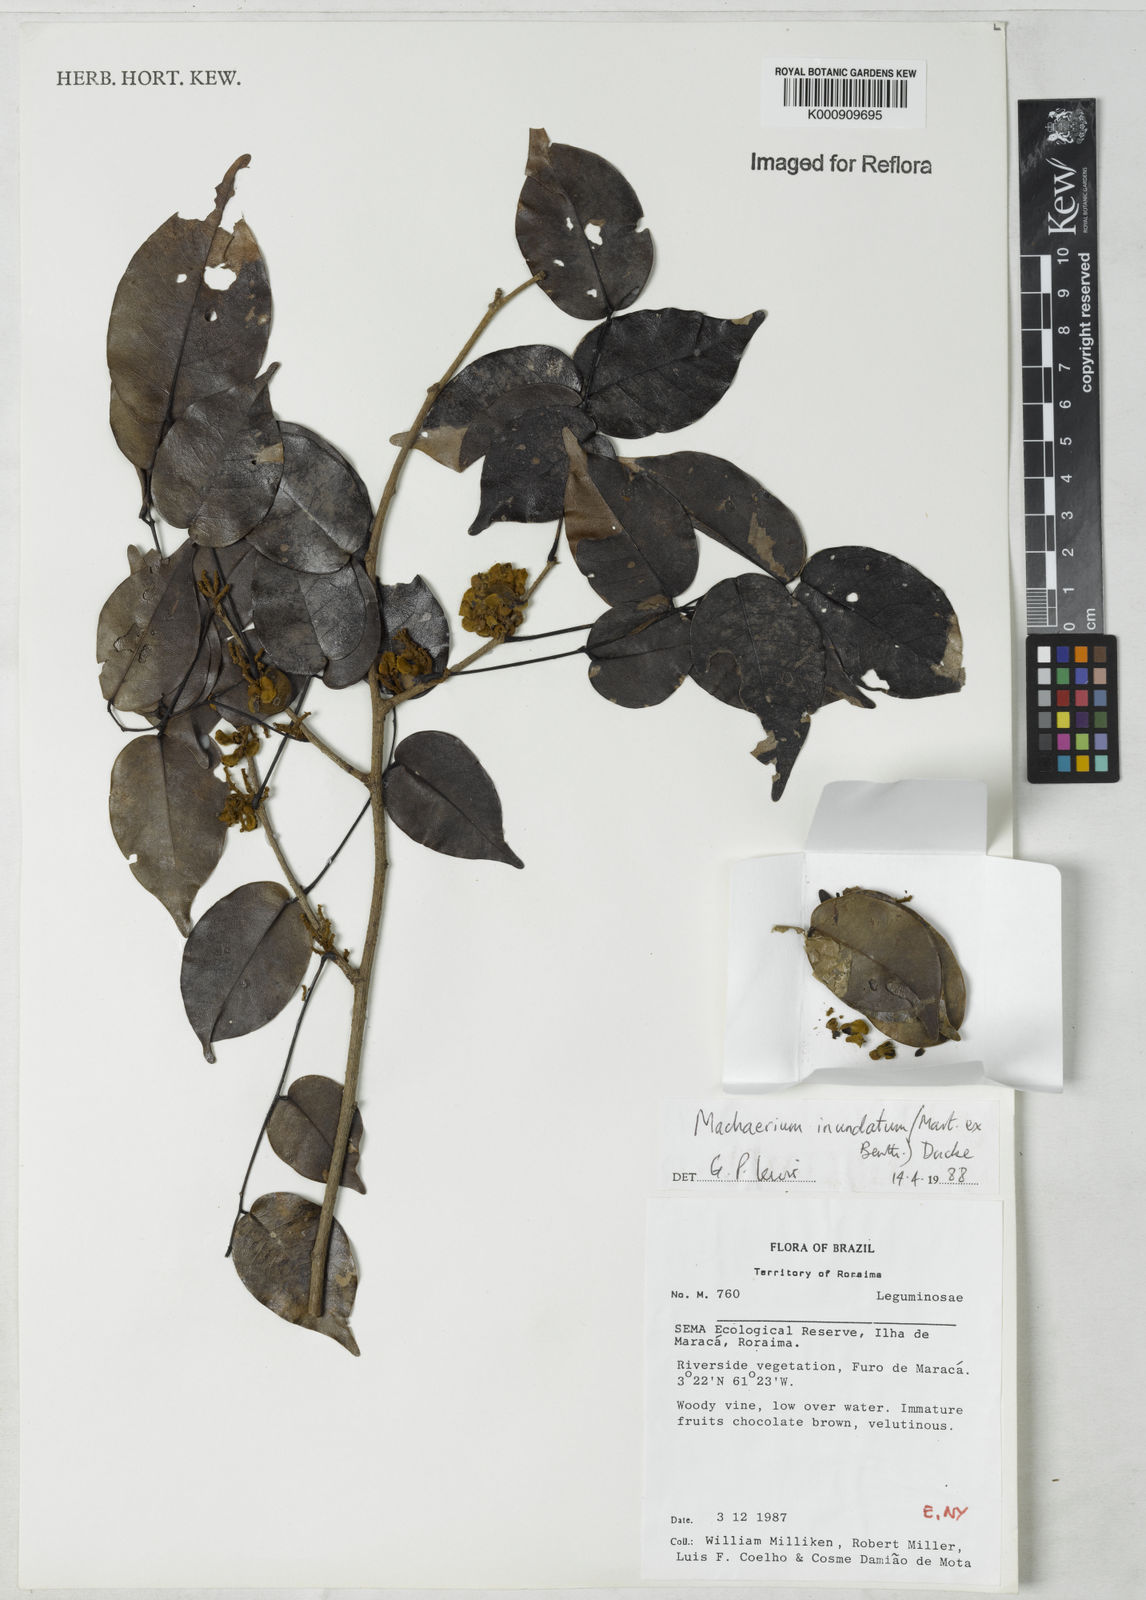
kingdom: Plantae
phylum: Tracheophyta
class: Magnoliopsida
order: Fabales
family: Fabaceae
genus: Machaerium
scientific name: Machaerium inundatum
